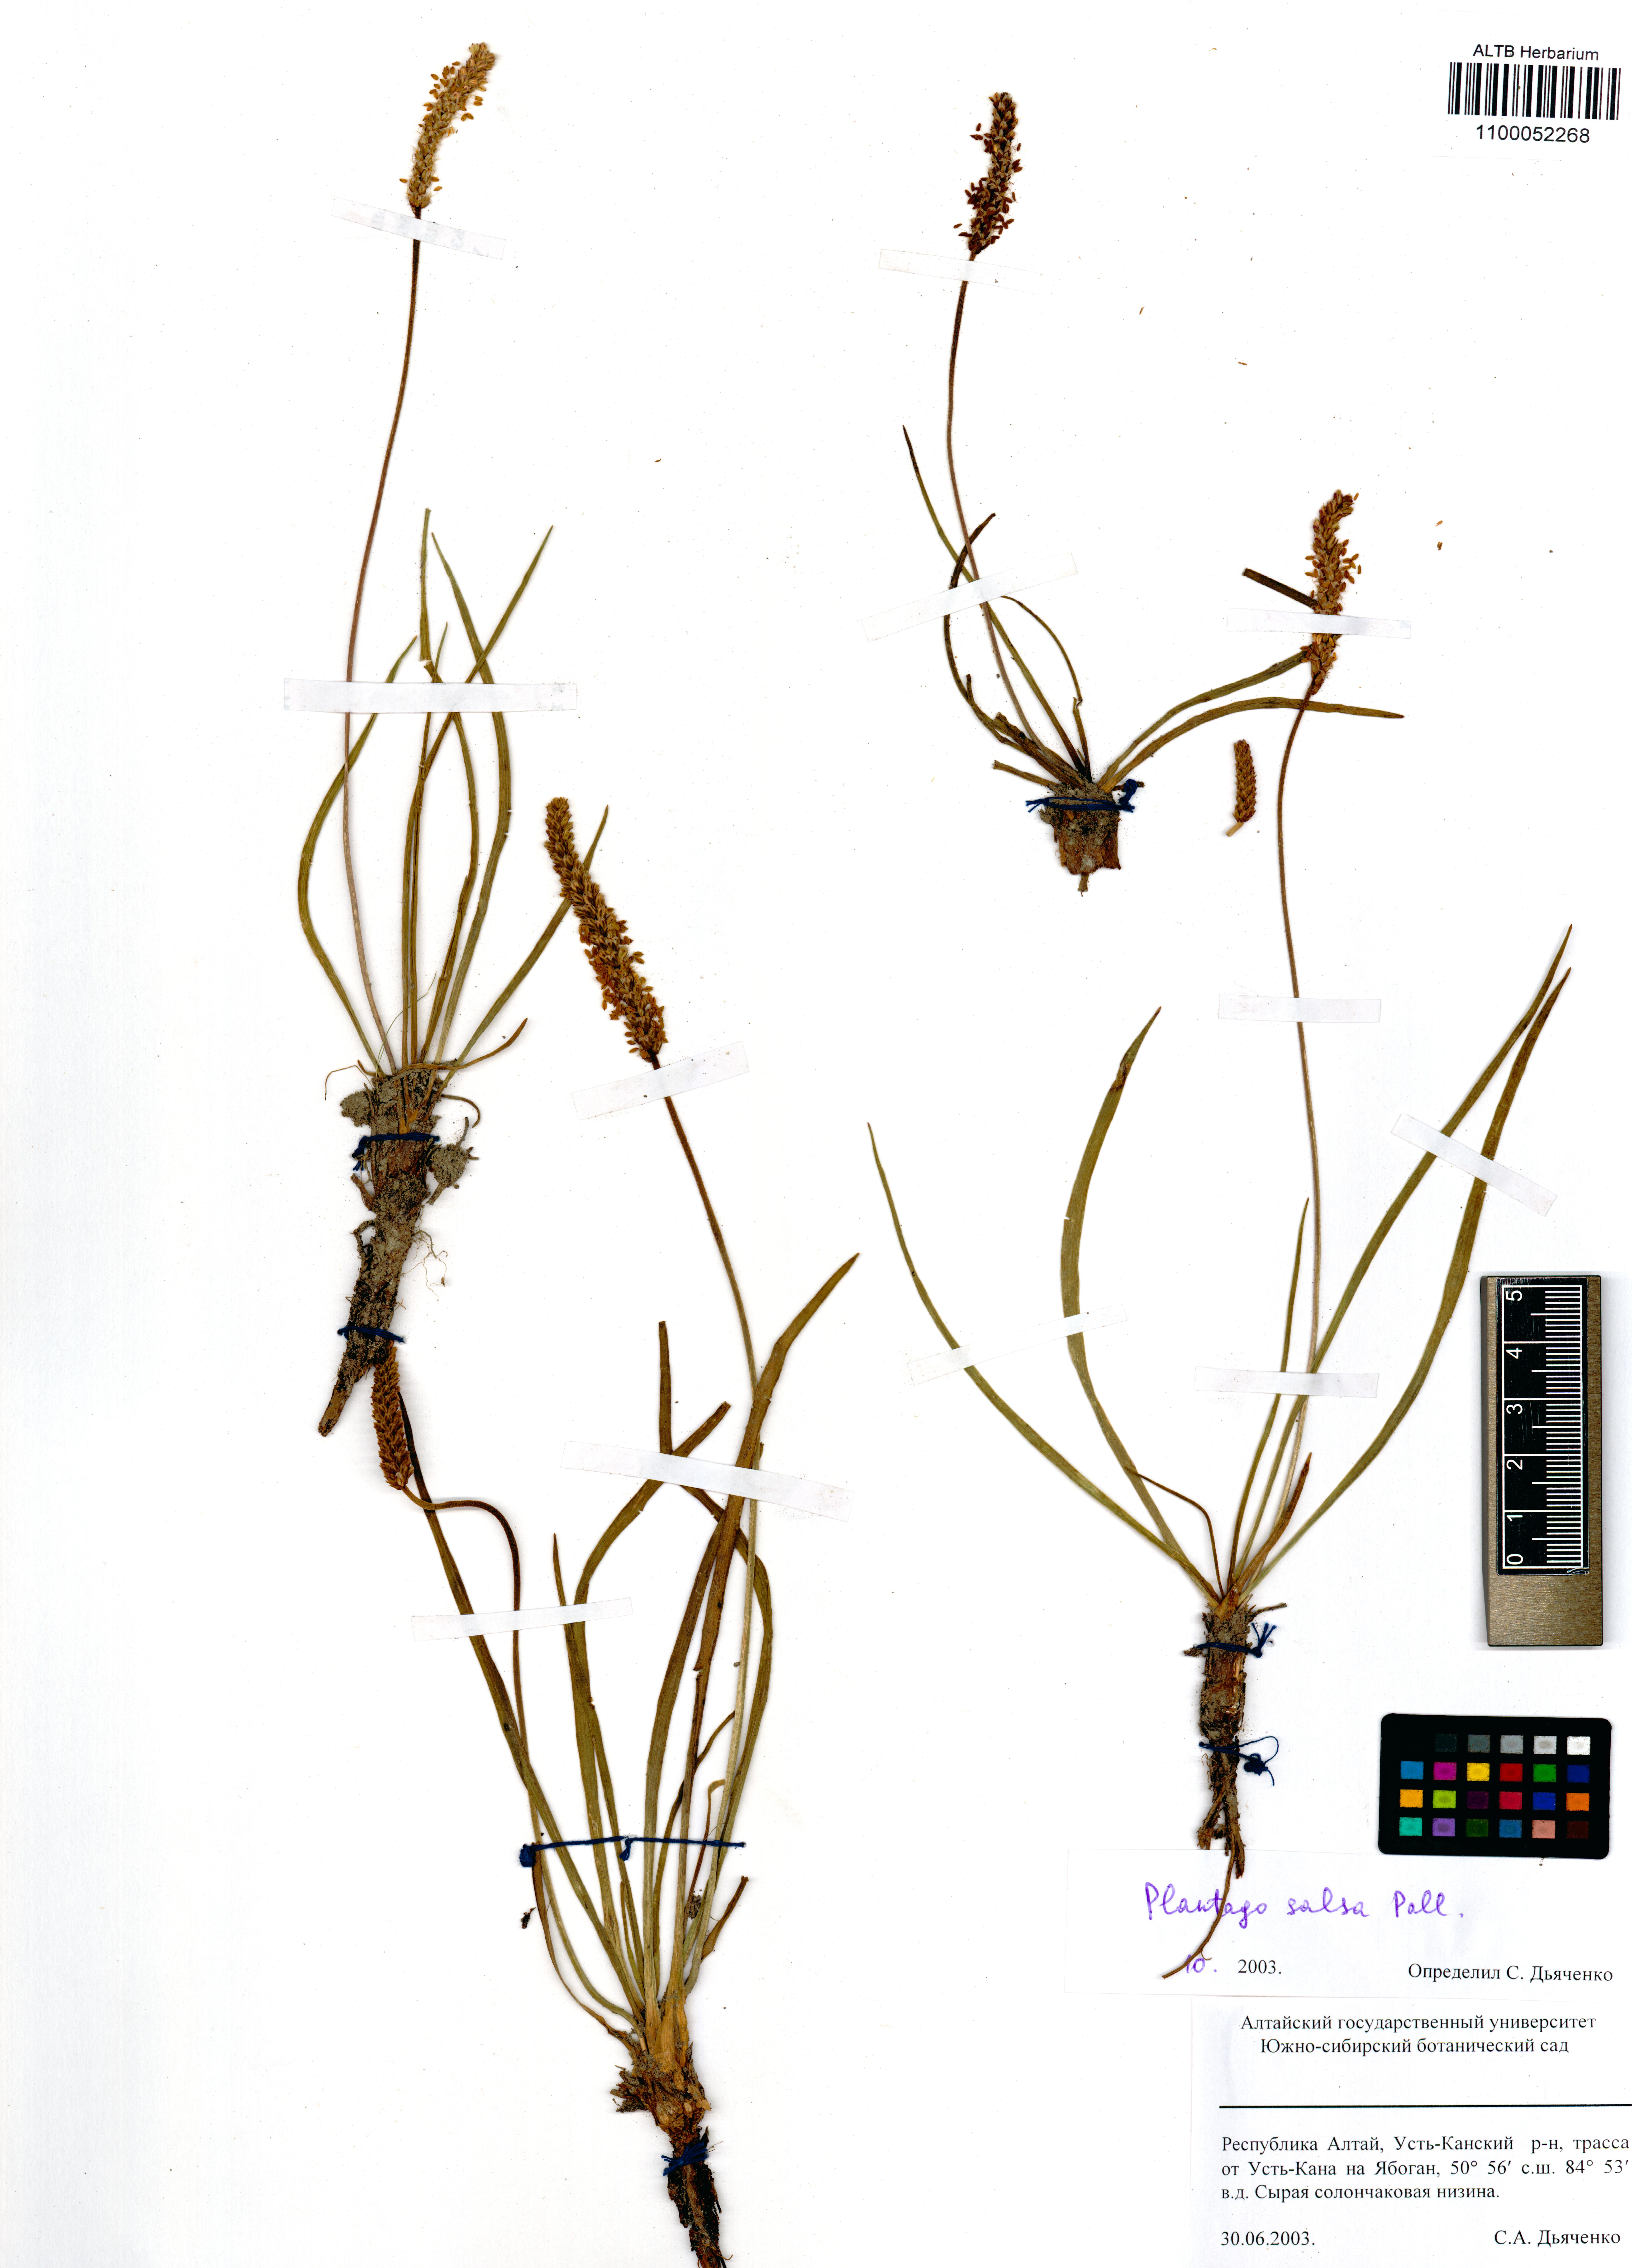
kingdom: Plantae
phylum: Tracheophyta
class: Magnoliopsida
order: Lamiales
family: Plantaginaceae
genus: Plantago
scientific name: Plantago salsa
